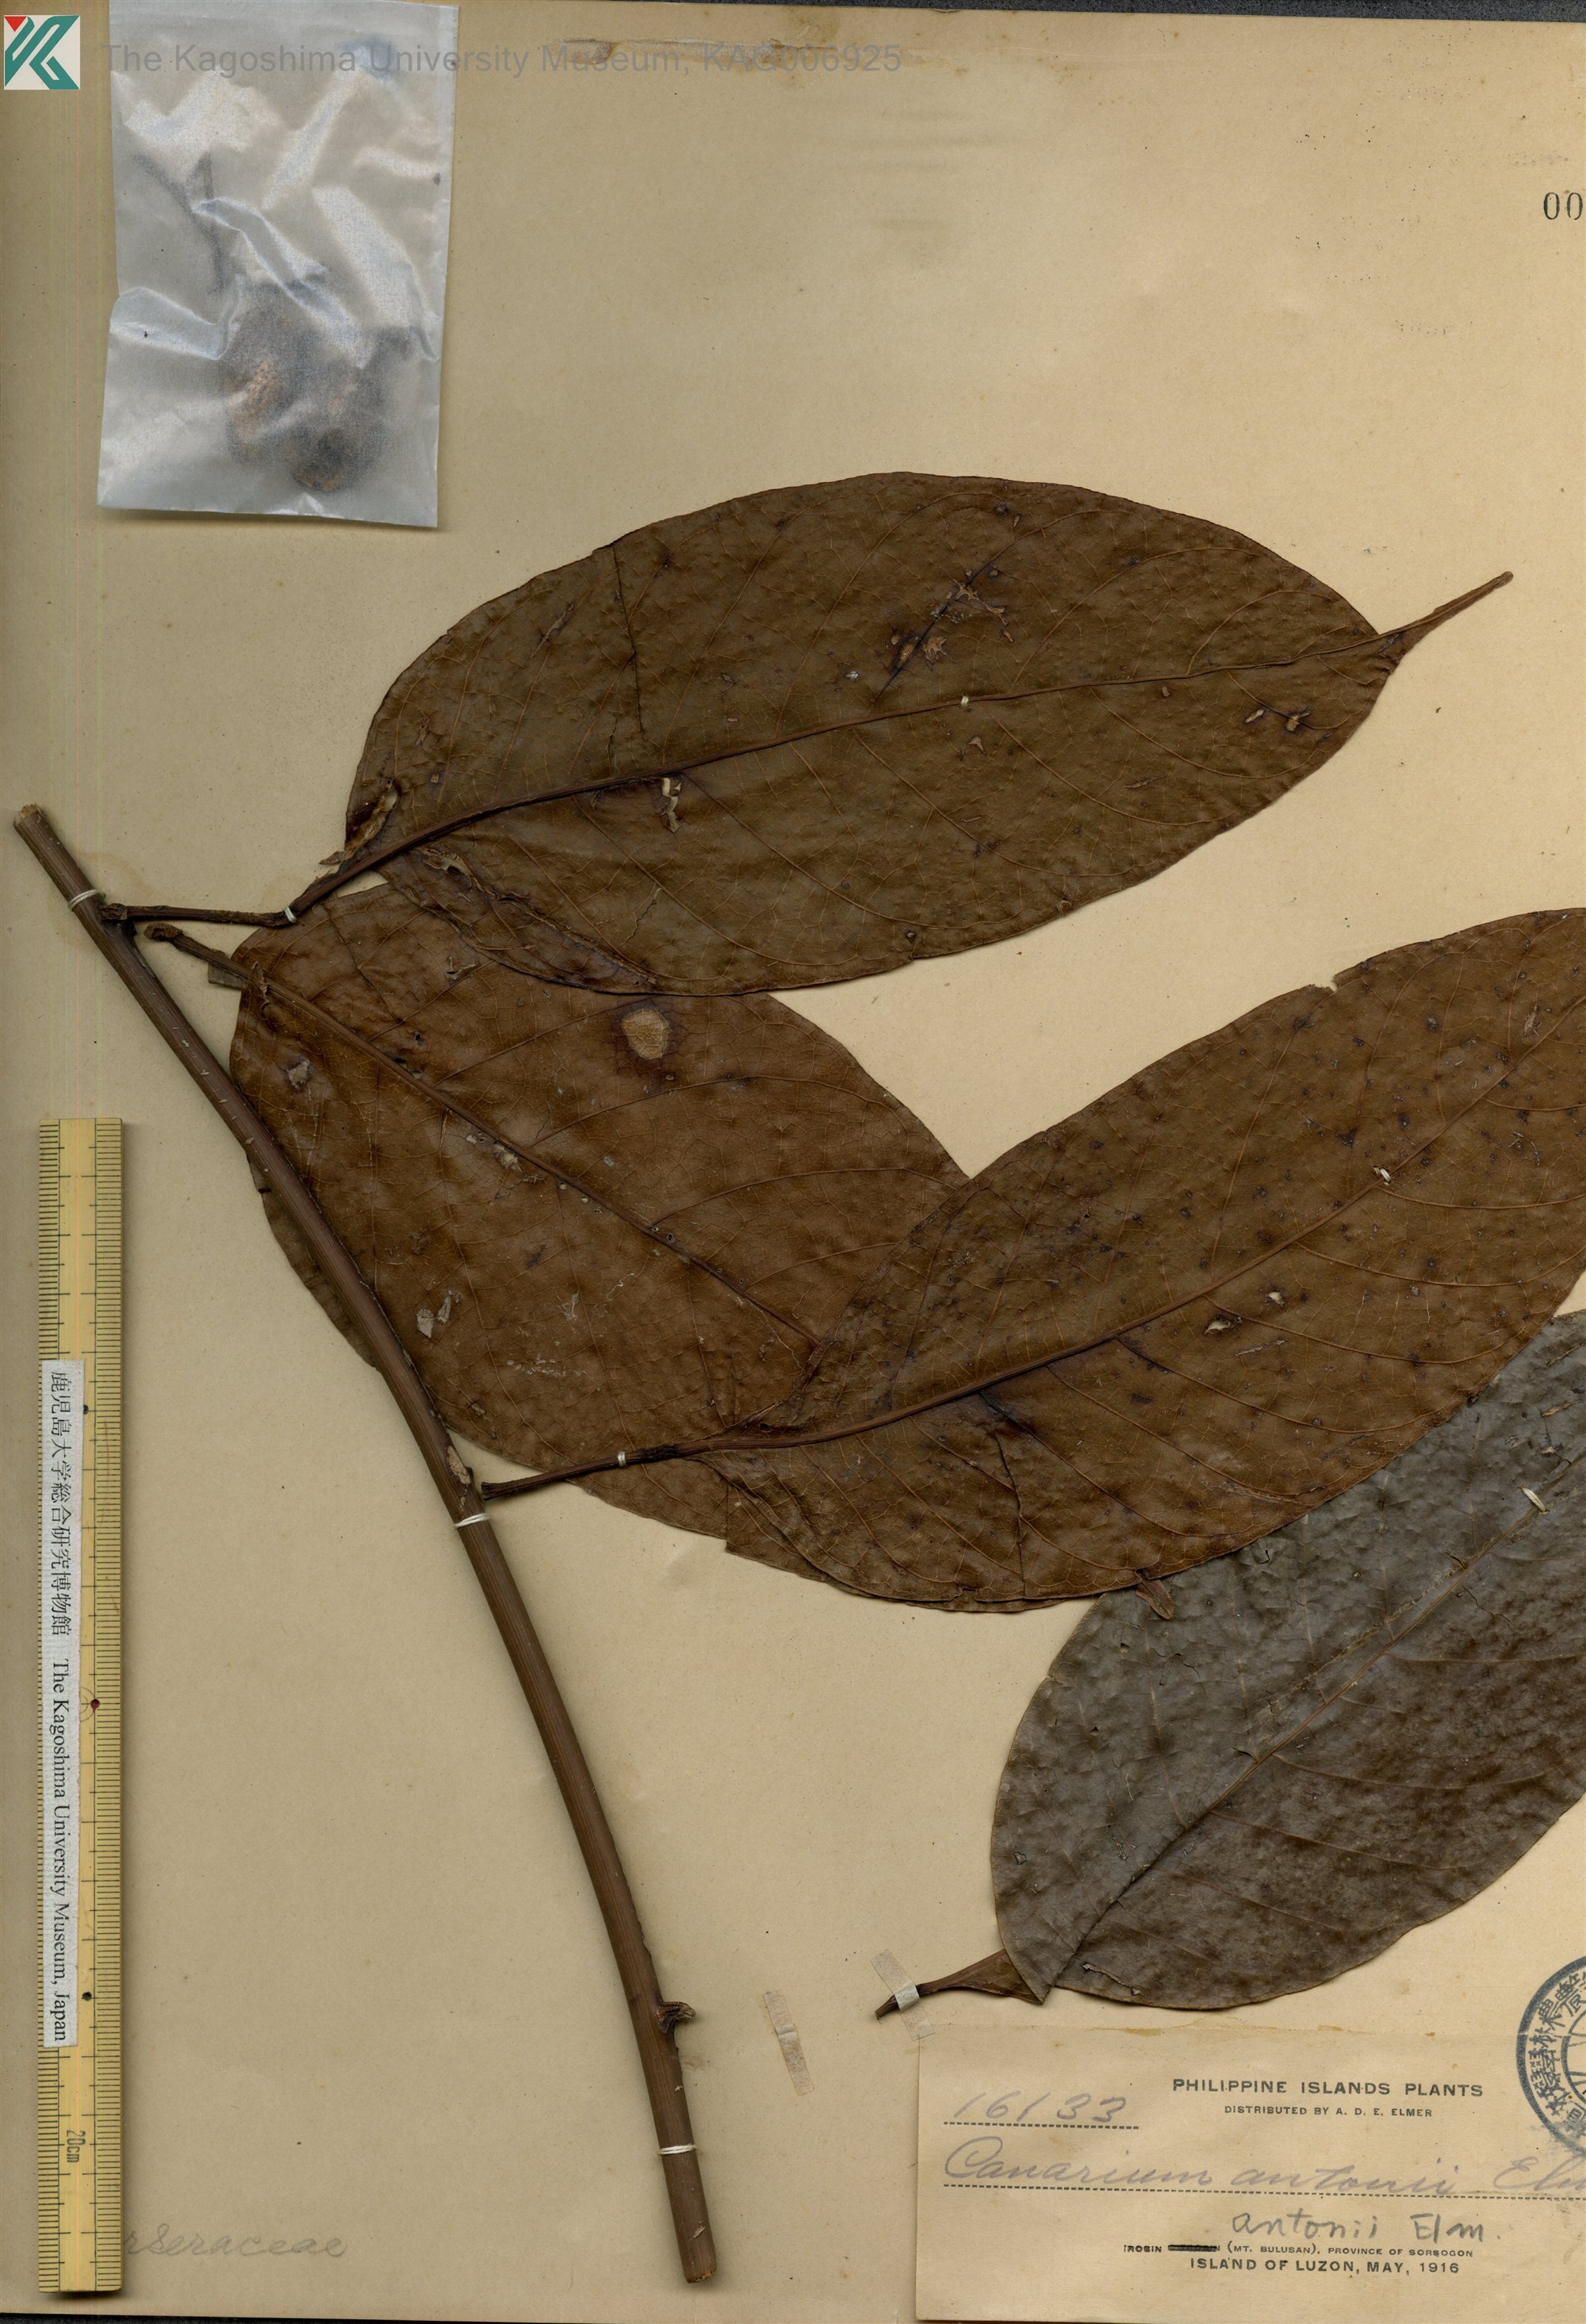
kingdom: Plantae
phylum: Tracheophyta
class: Magnoliopsida
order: Sapindales
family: Burseraceae
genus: Canarium
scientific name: Canarium gracile
